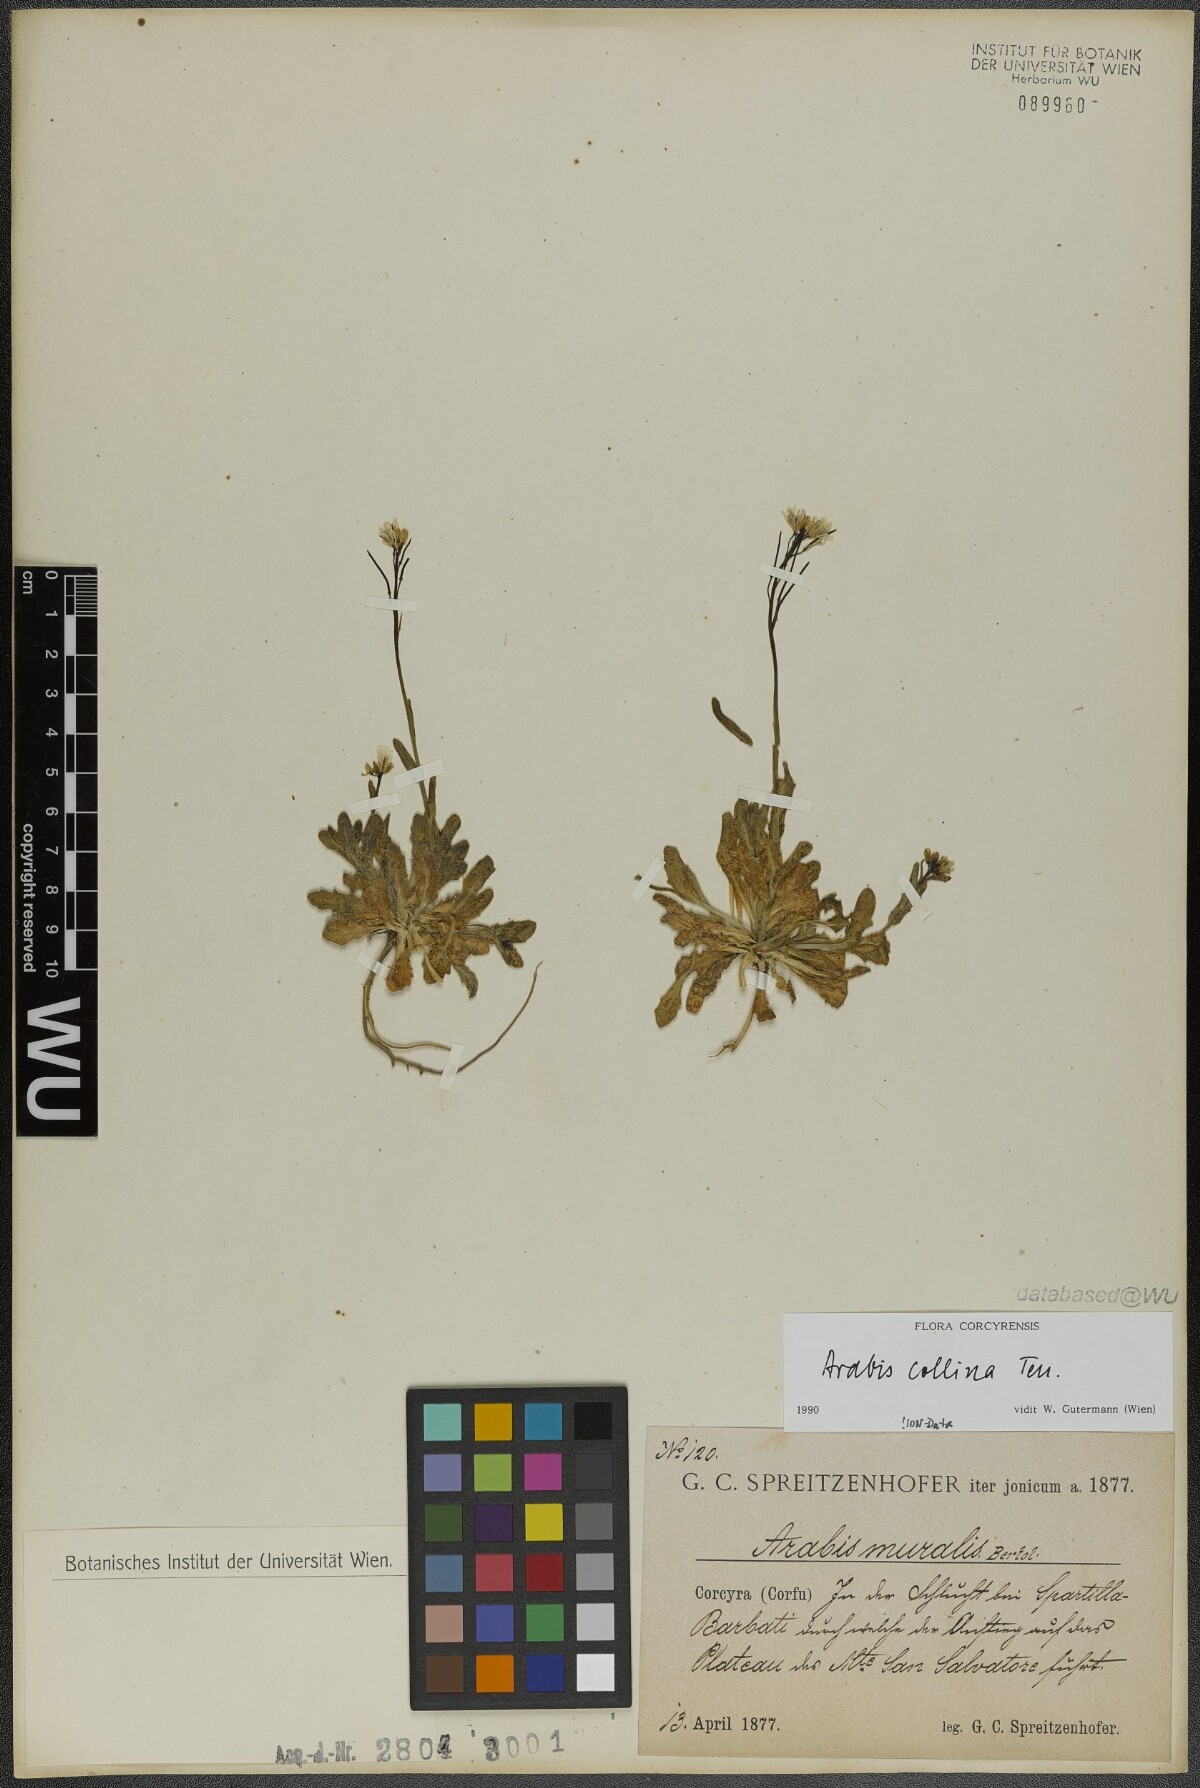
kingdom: Plantae
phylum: Tracheophyta
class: Magnoliopsida
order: Brassicales
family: Brassicaceae
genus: Arabis
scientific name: Arabis collina
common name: Rosy cress
